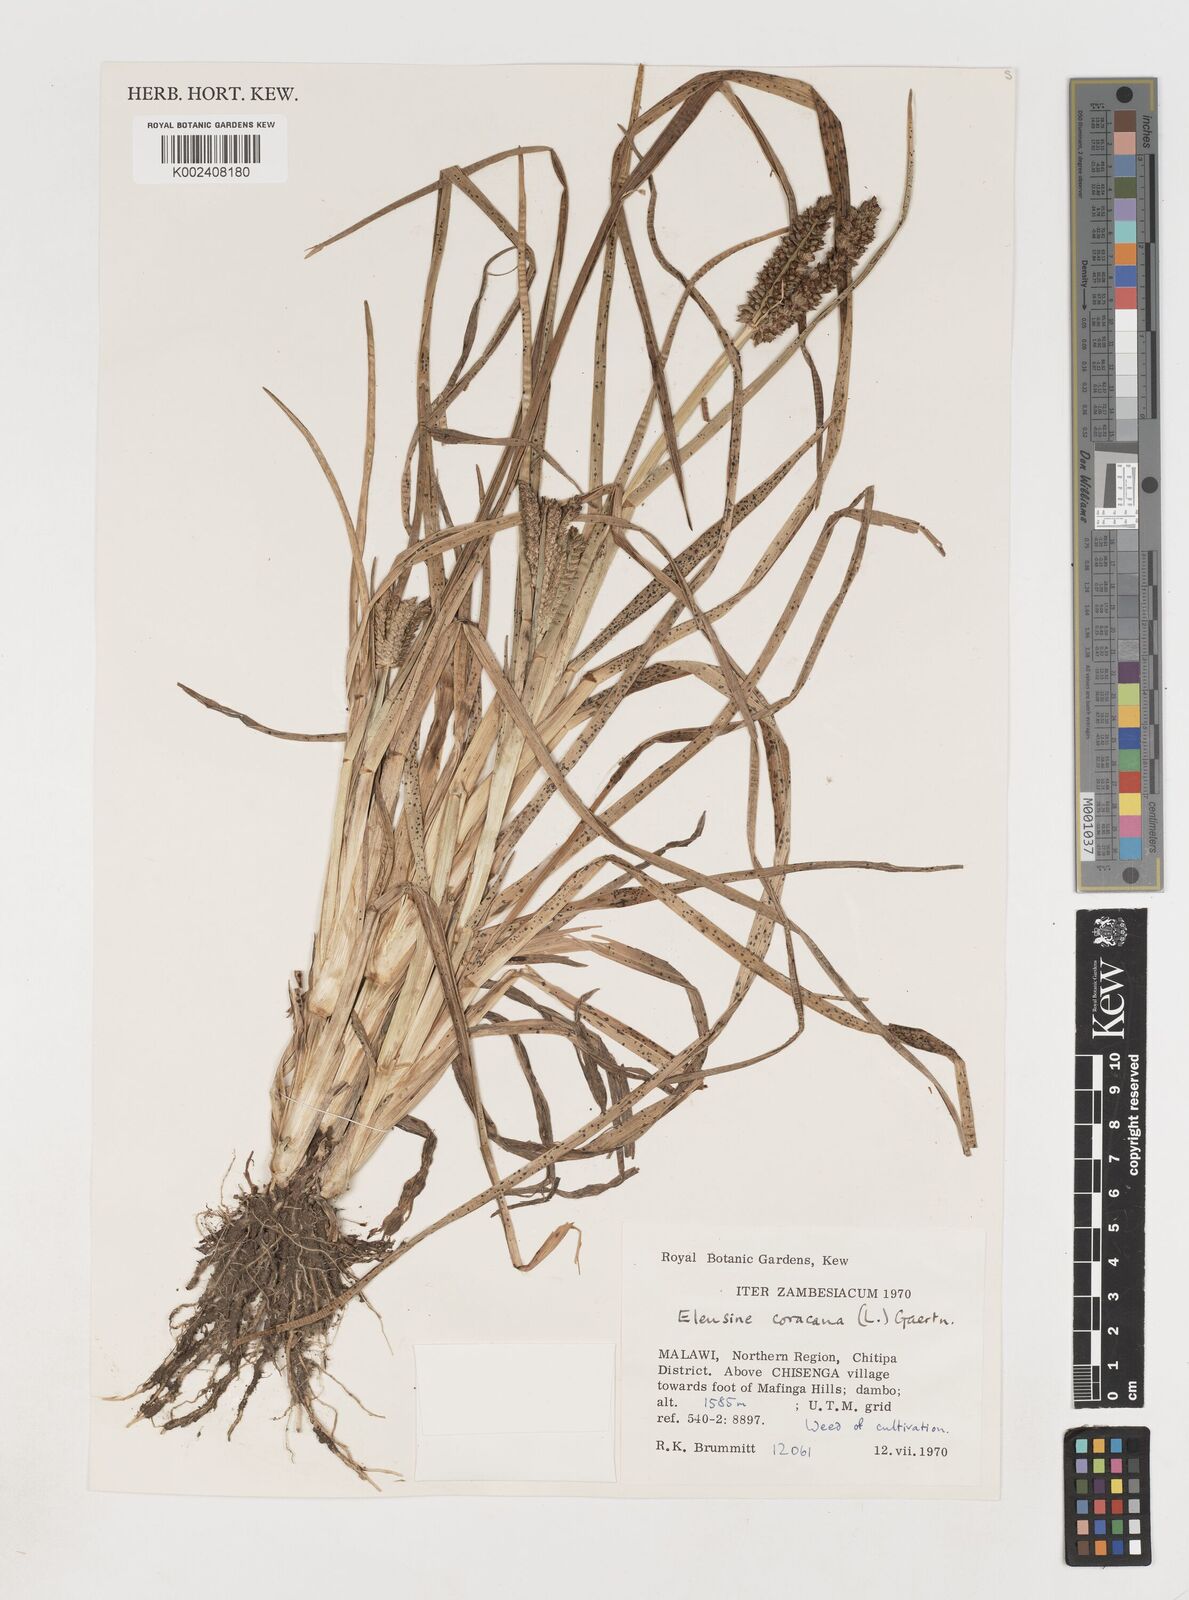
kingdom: Plantae
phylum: Tracheophyta
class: Liliopsida
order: Poales
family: Poaceae
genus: Eleusine
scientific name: Eleusine coracana
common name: Finger millet
